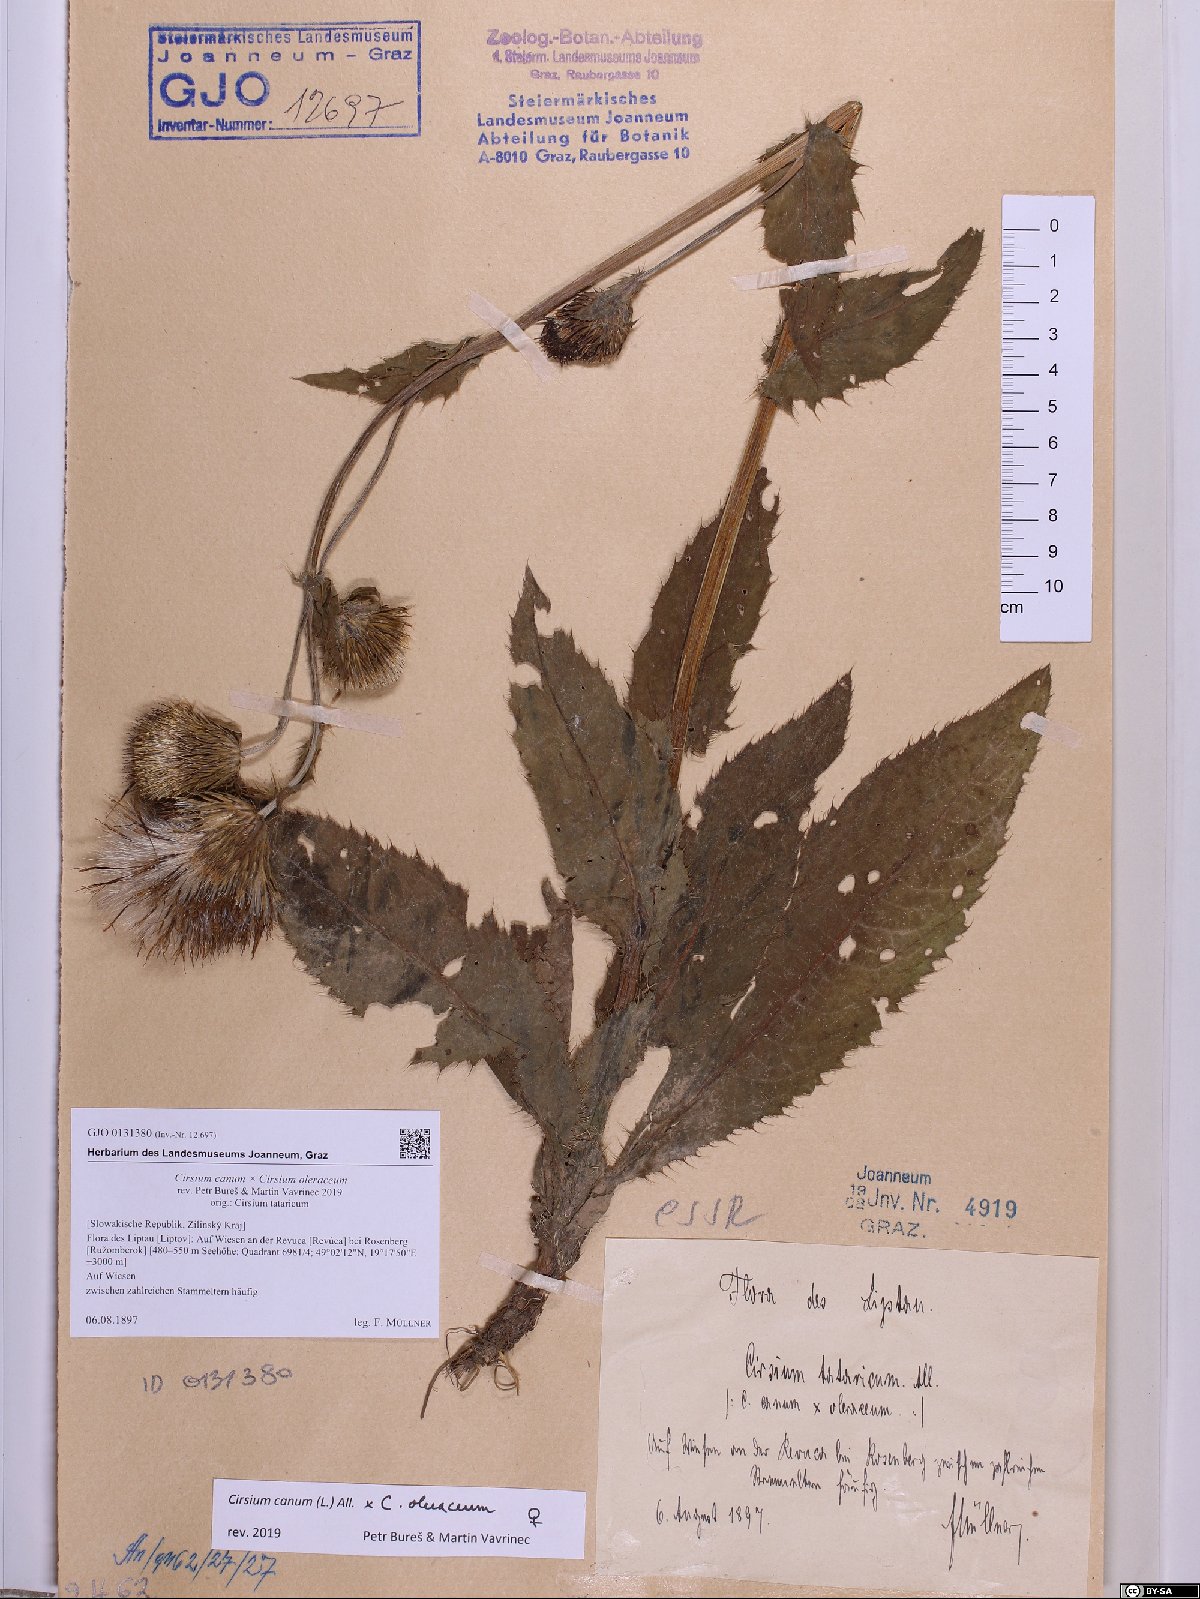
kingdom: Plantae
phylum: Tracheophyta
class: Magnoliopsida
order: Asterales
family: Asteraceae
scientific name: Asteraceae
